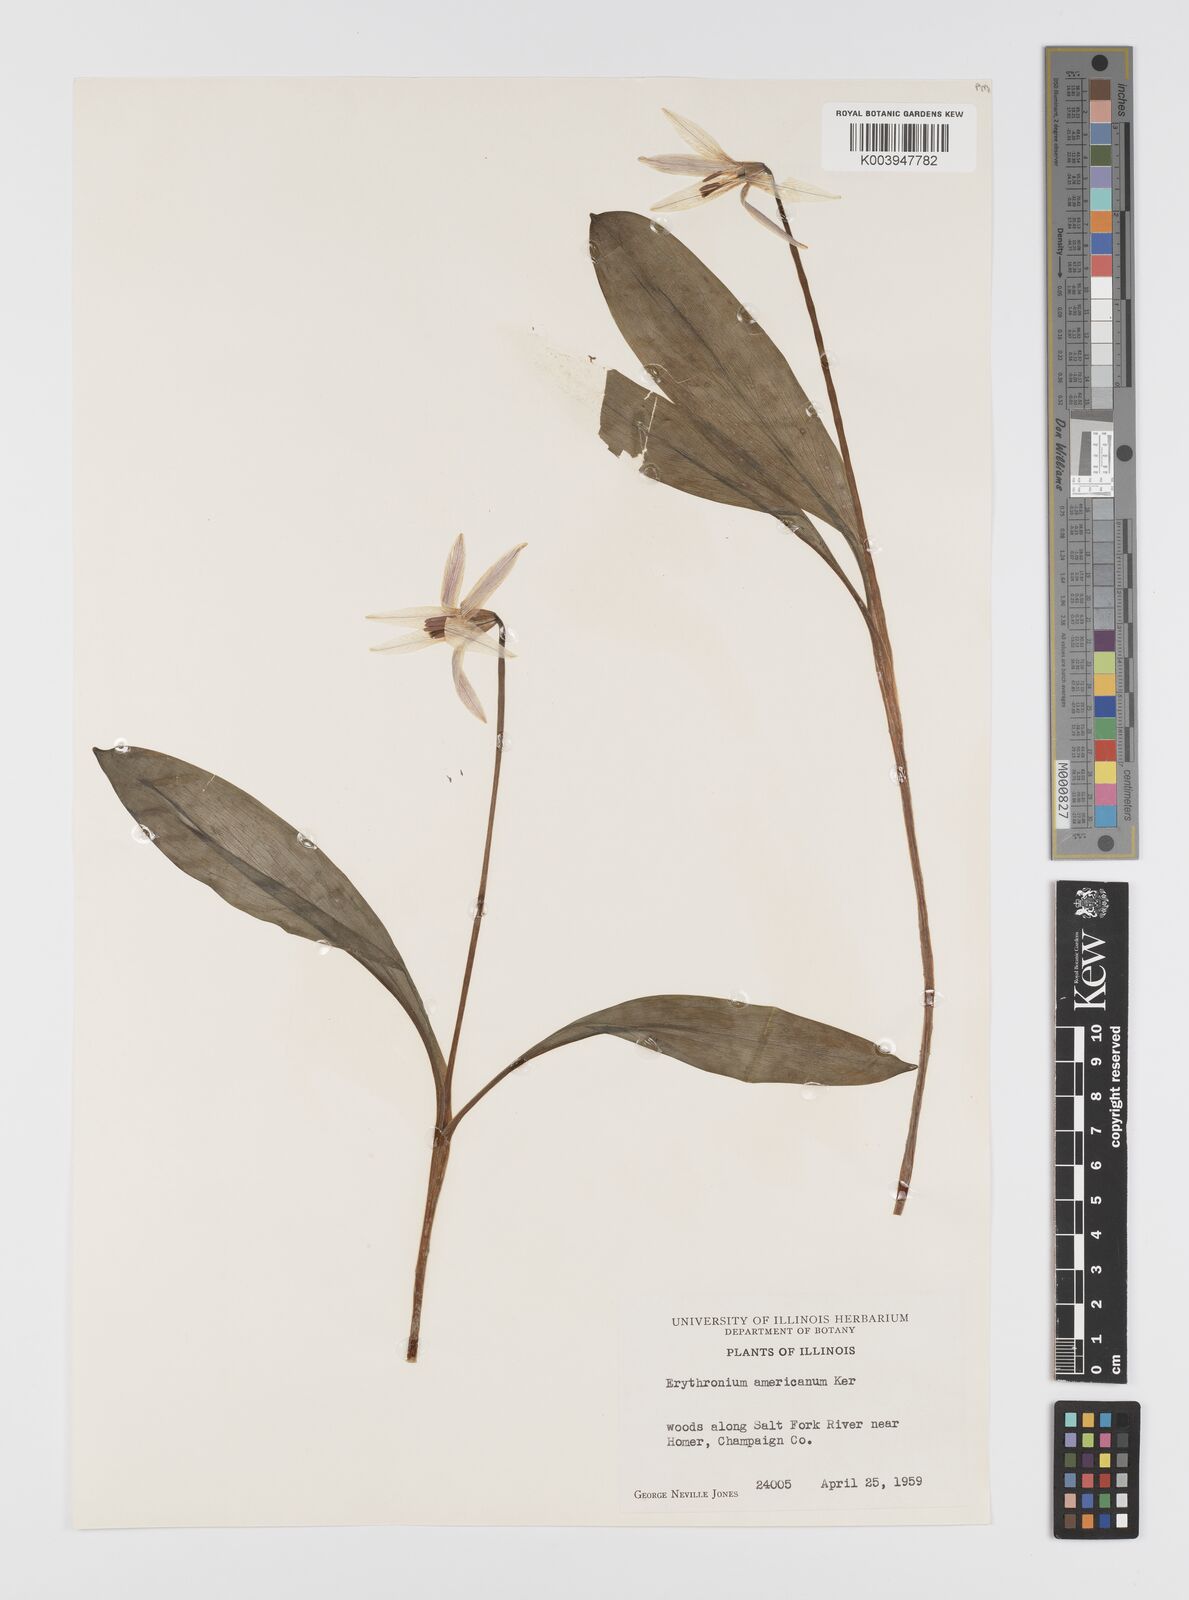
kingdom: Plantae
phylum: Tracheophyta
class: Liliopsida
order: Liliales
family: Liliaceae
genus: Erythronium
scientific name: Erythronium americanum
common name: Yellow adder's-tongue
